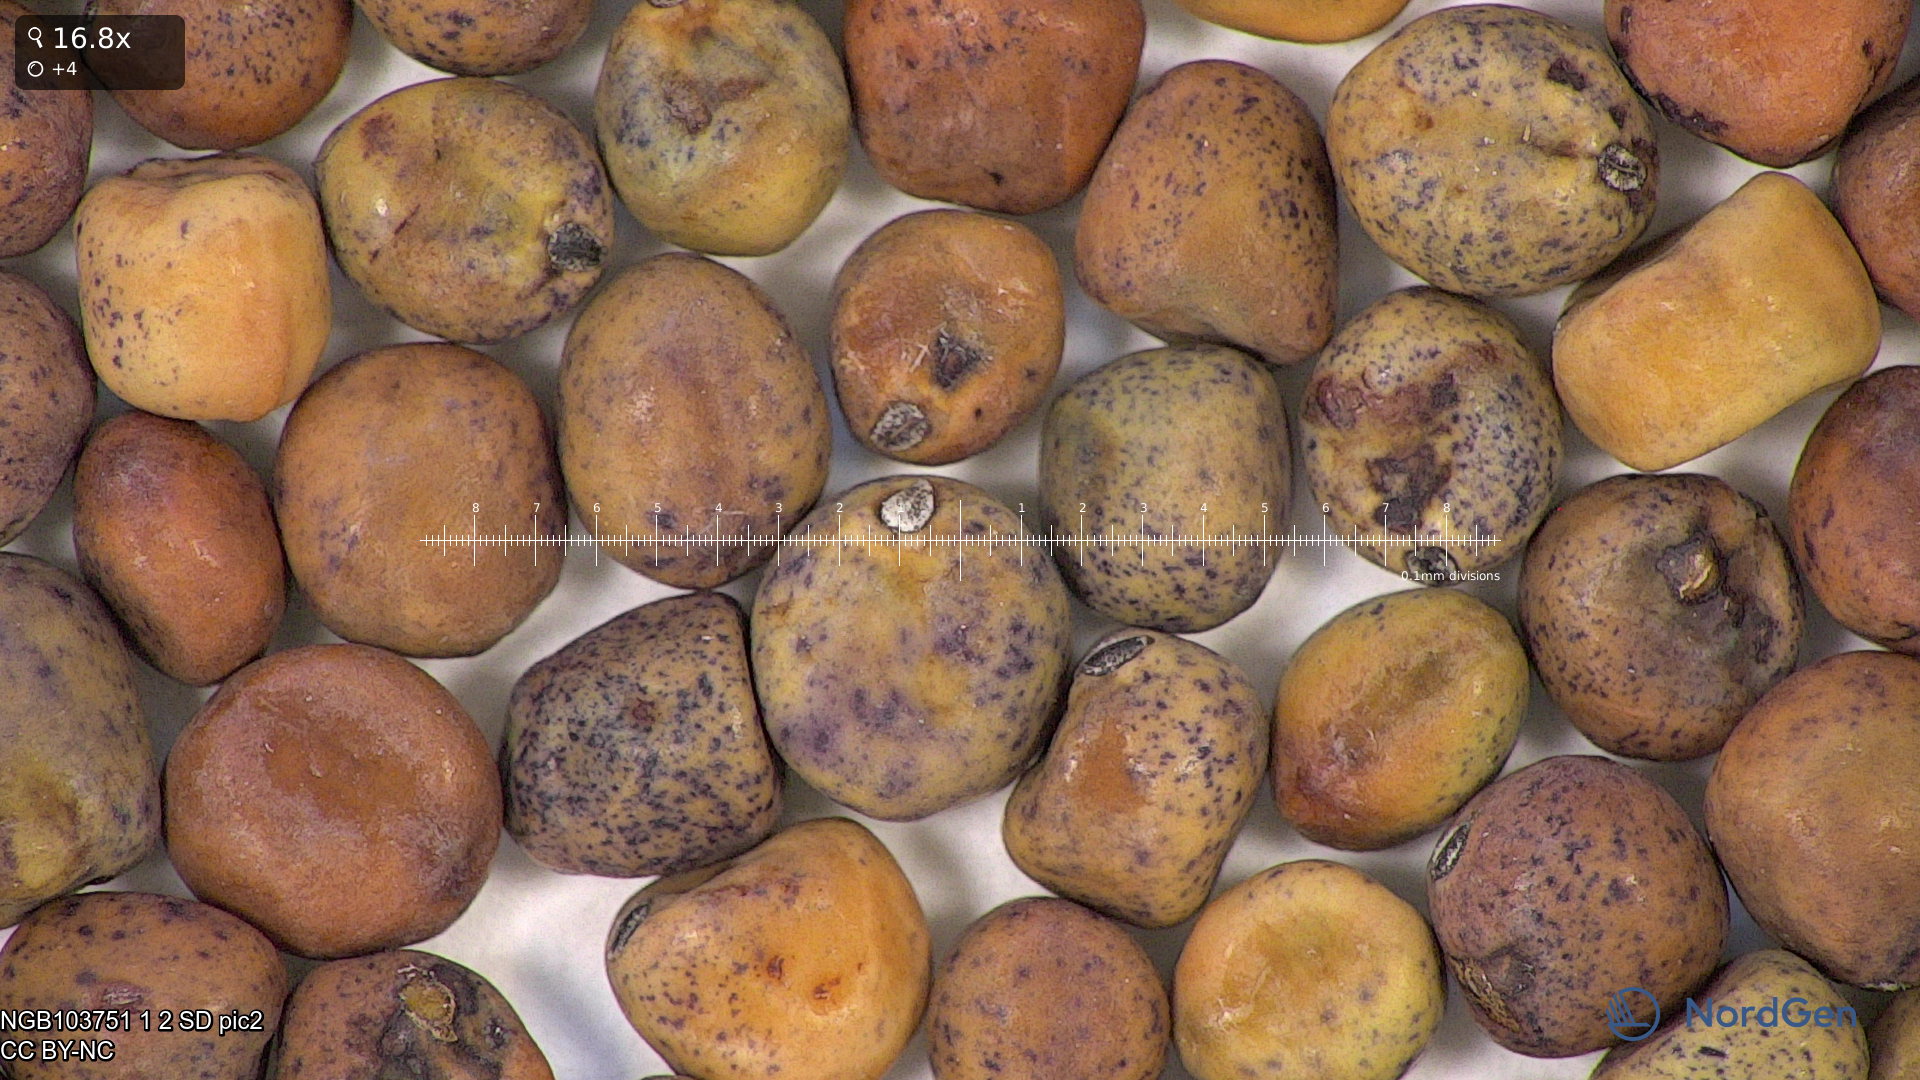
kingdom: Plantae
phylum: Tracheophyta
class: Magnoliopsida
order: Fabales
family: Fabaceae
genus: Lathyrus
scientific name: Lathyrus oleraceus
